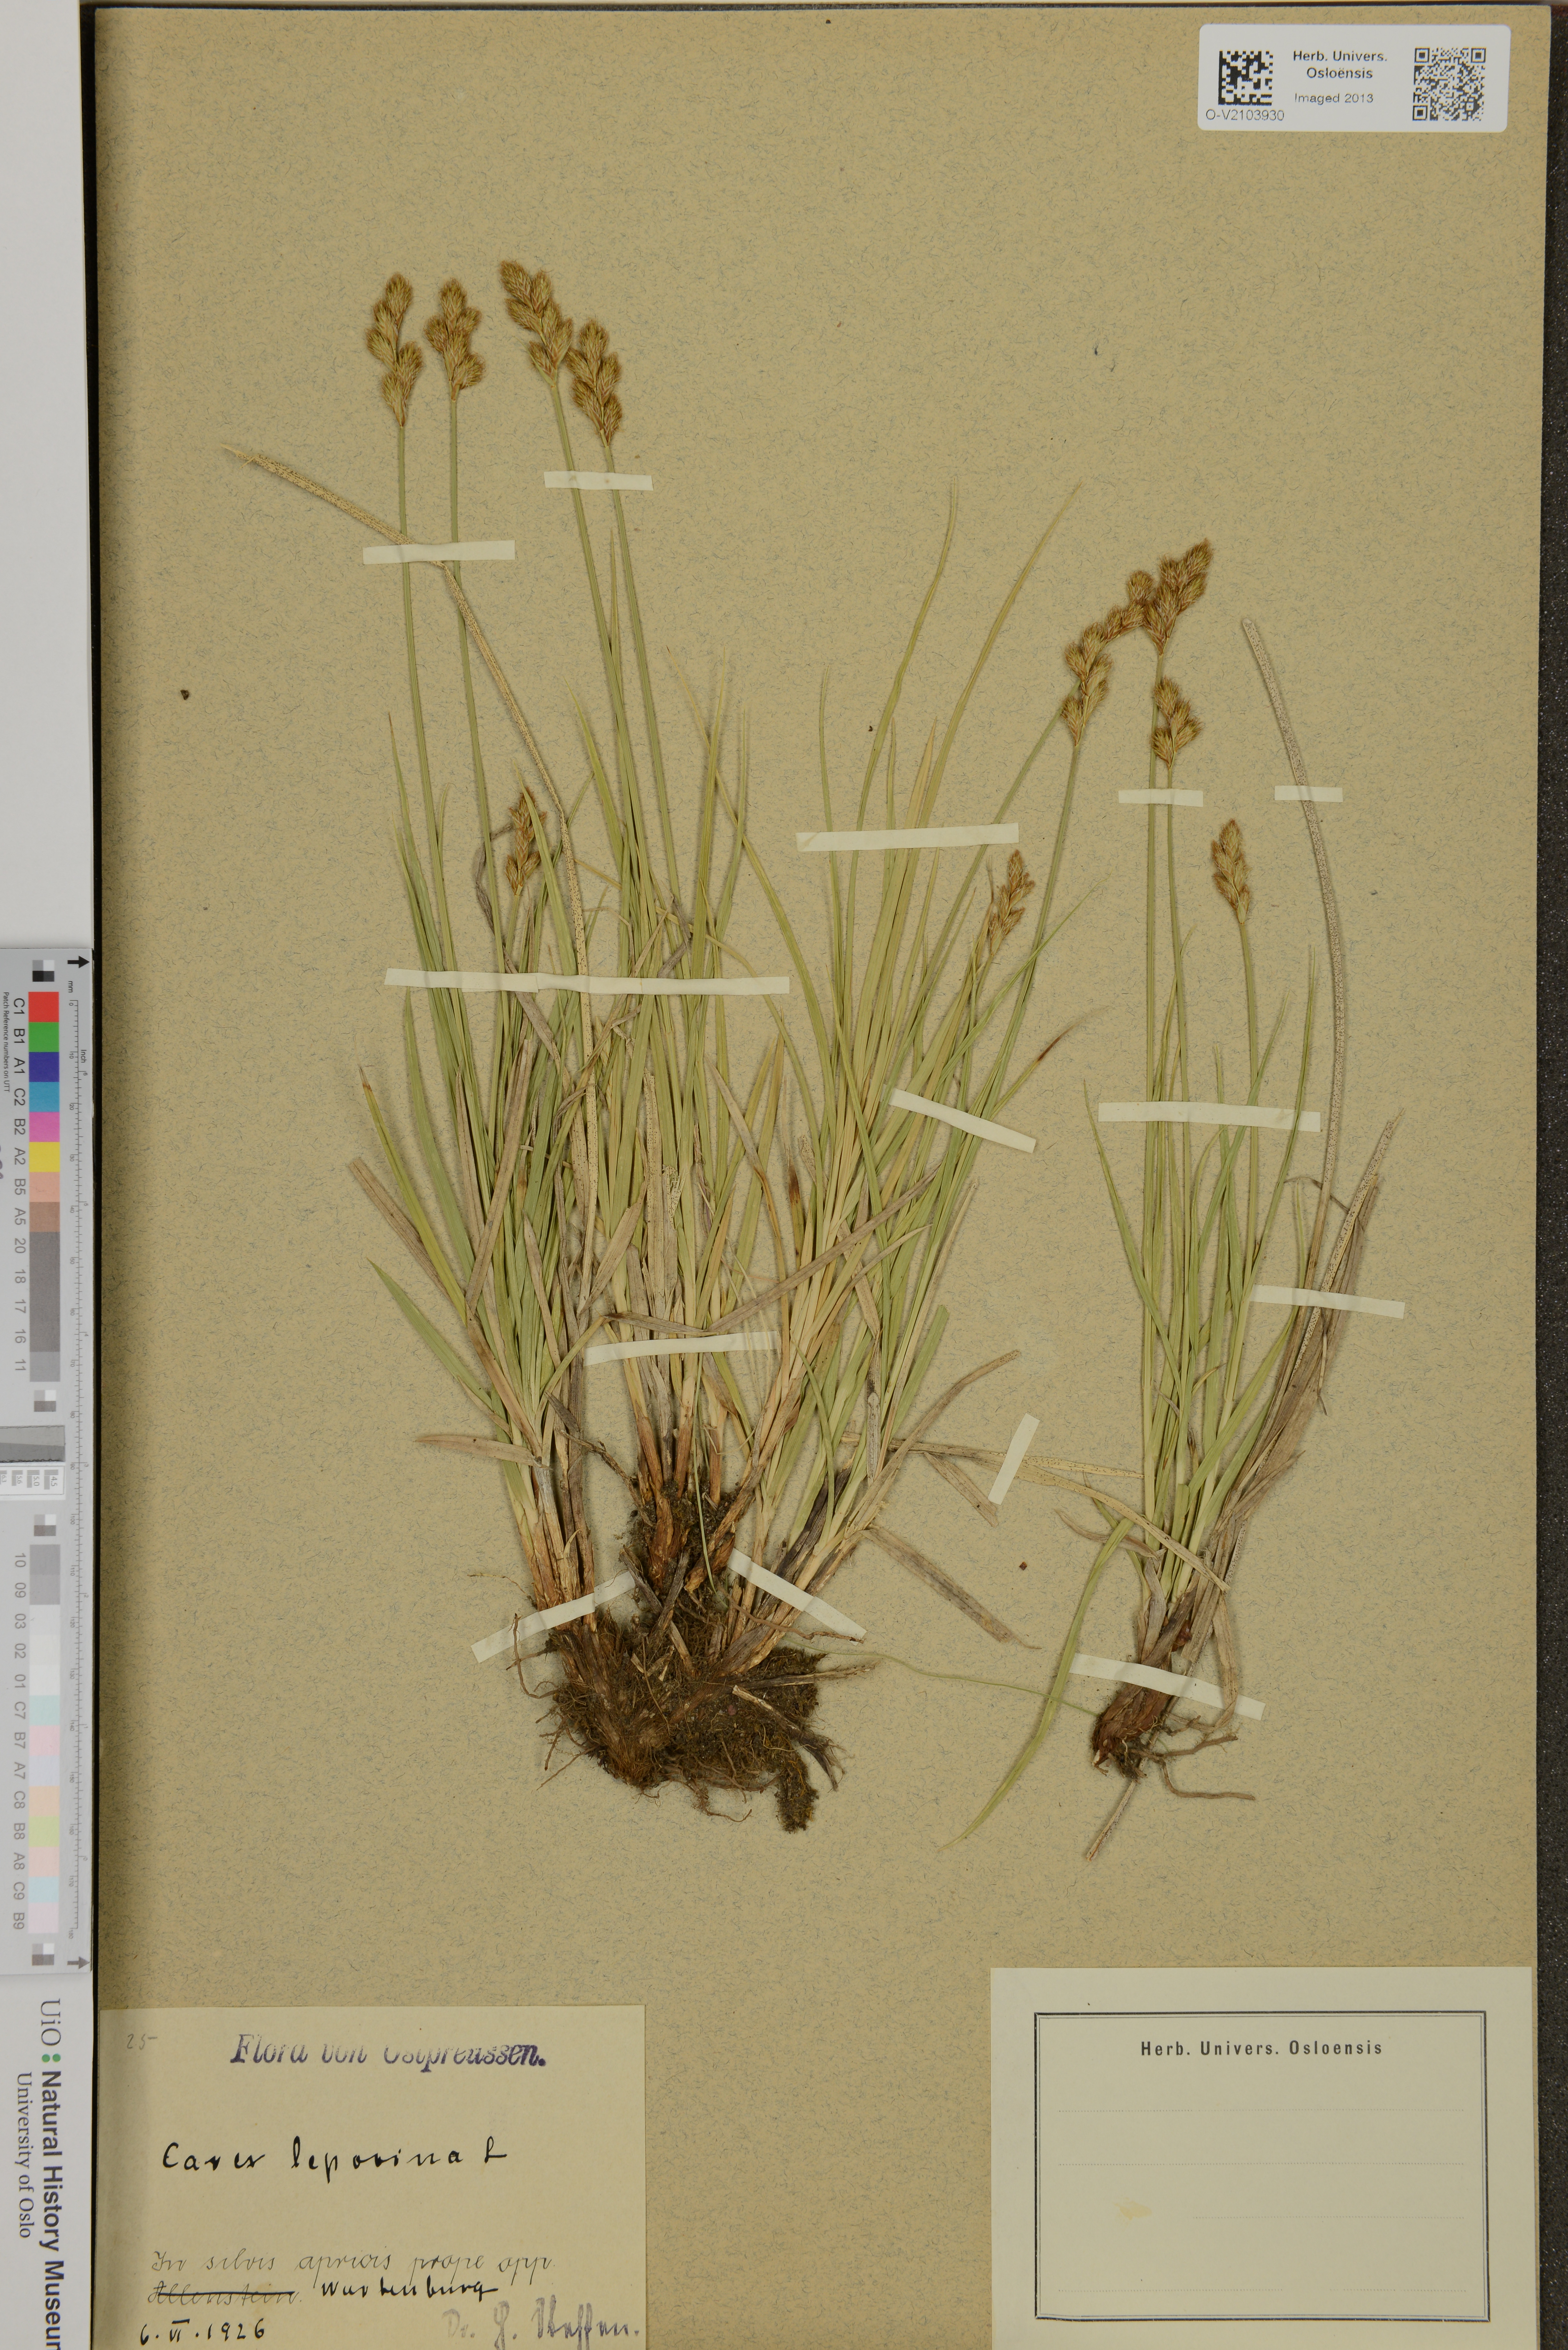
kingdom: Plantae
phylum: Tracheophyta
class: Liliopsida
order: Poales
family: Cyperaceae
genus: Carex
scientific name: Carex leporina
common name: Oval sedge
